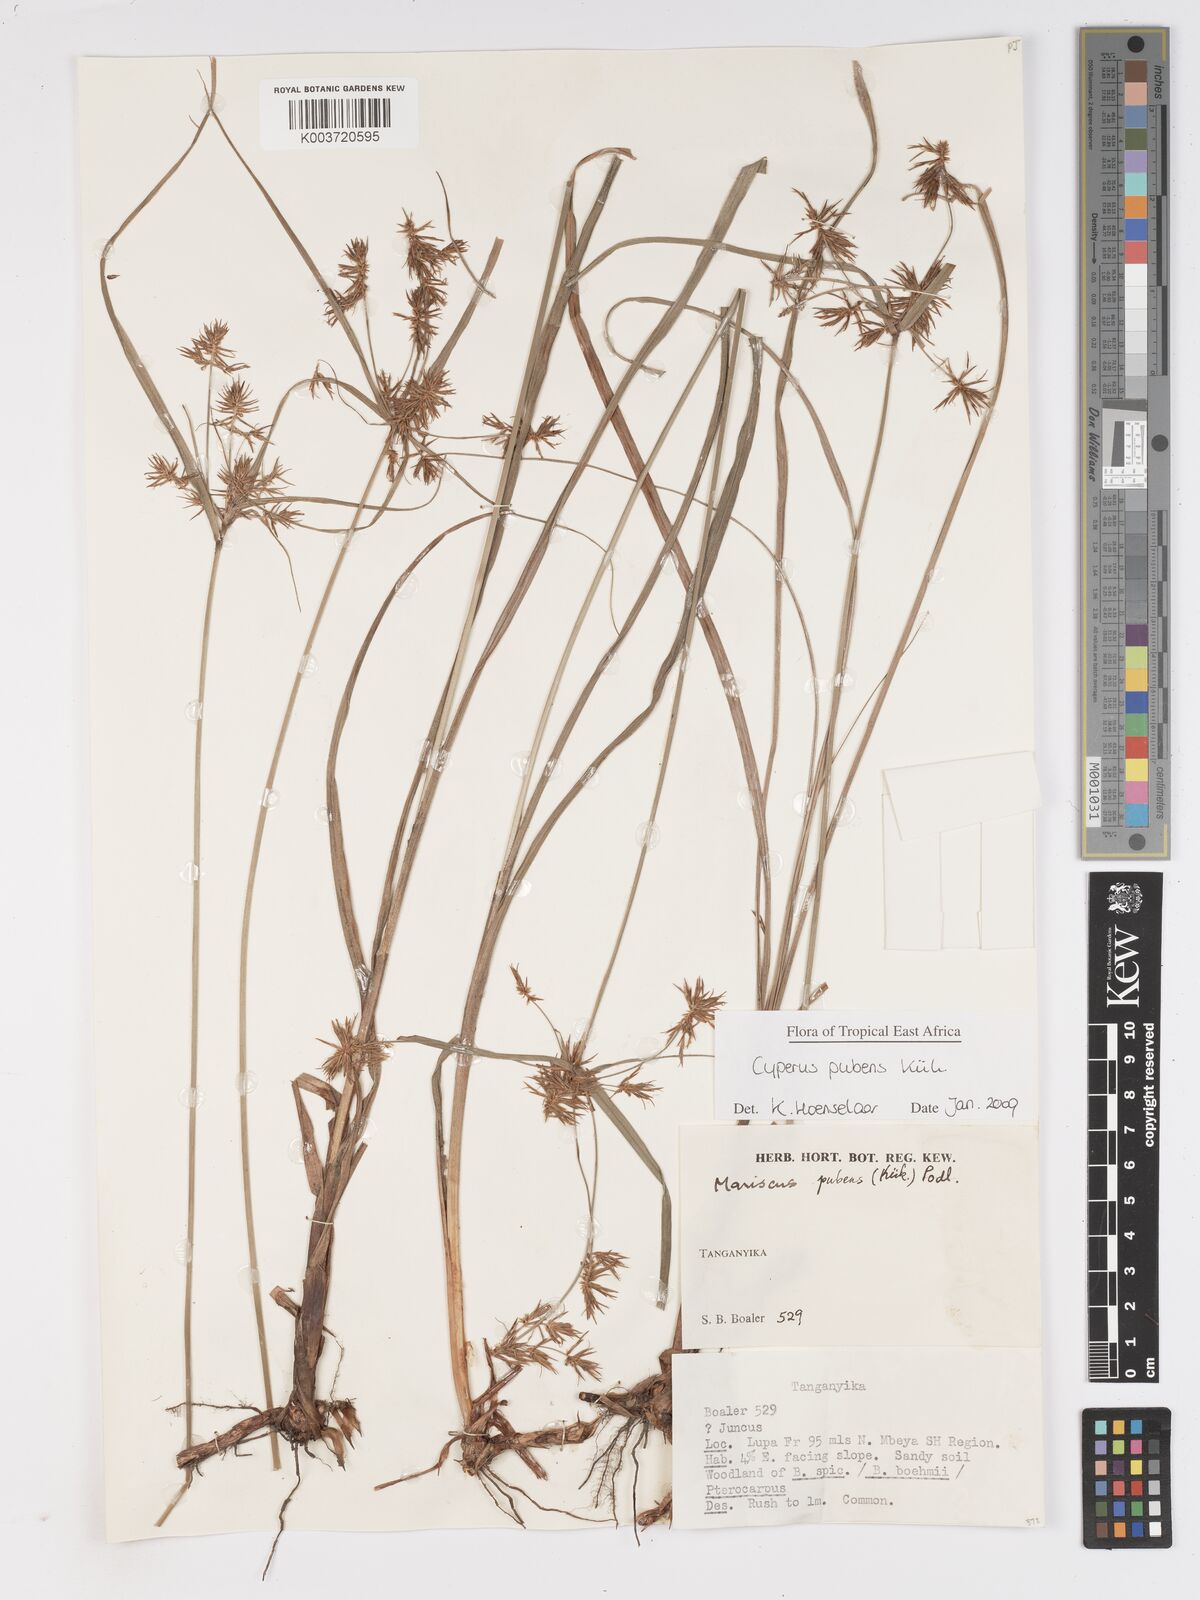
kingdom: Plantae
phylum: Tracheophyta
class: Liliopsida
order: Poales
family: Cyperaceae
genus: Cyperus
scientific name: Cyperus pubens
